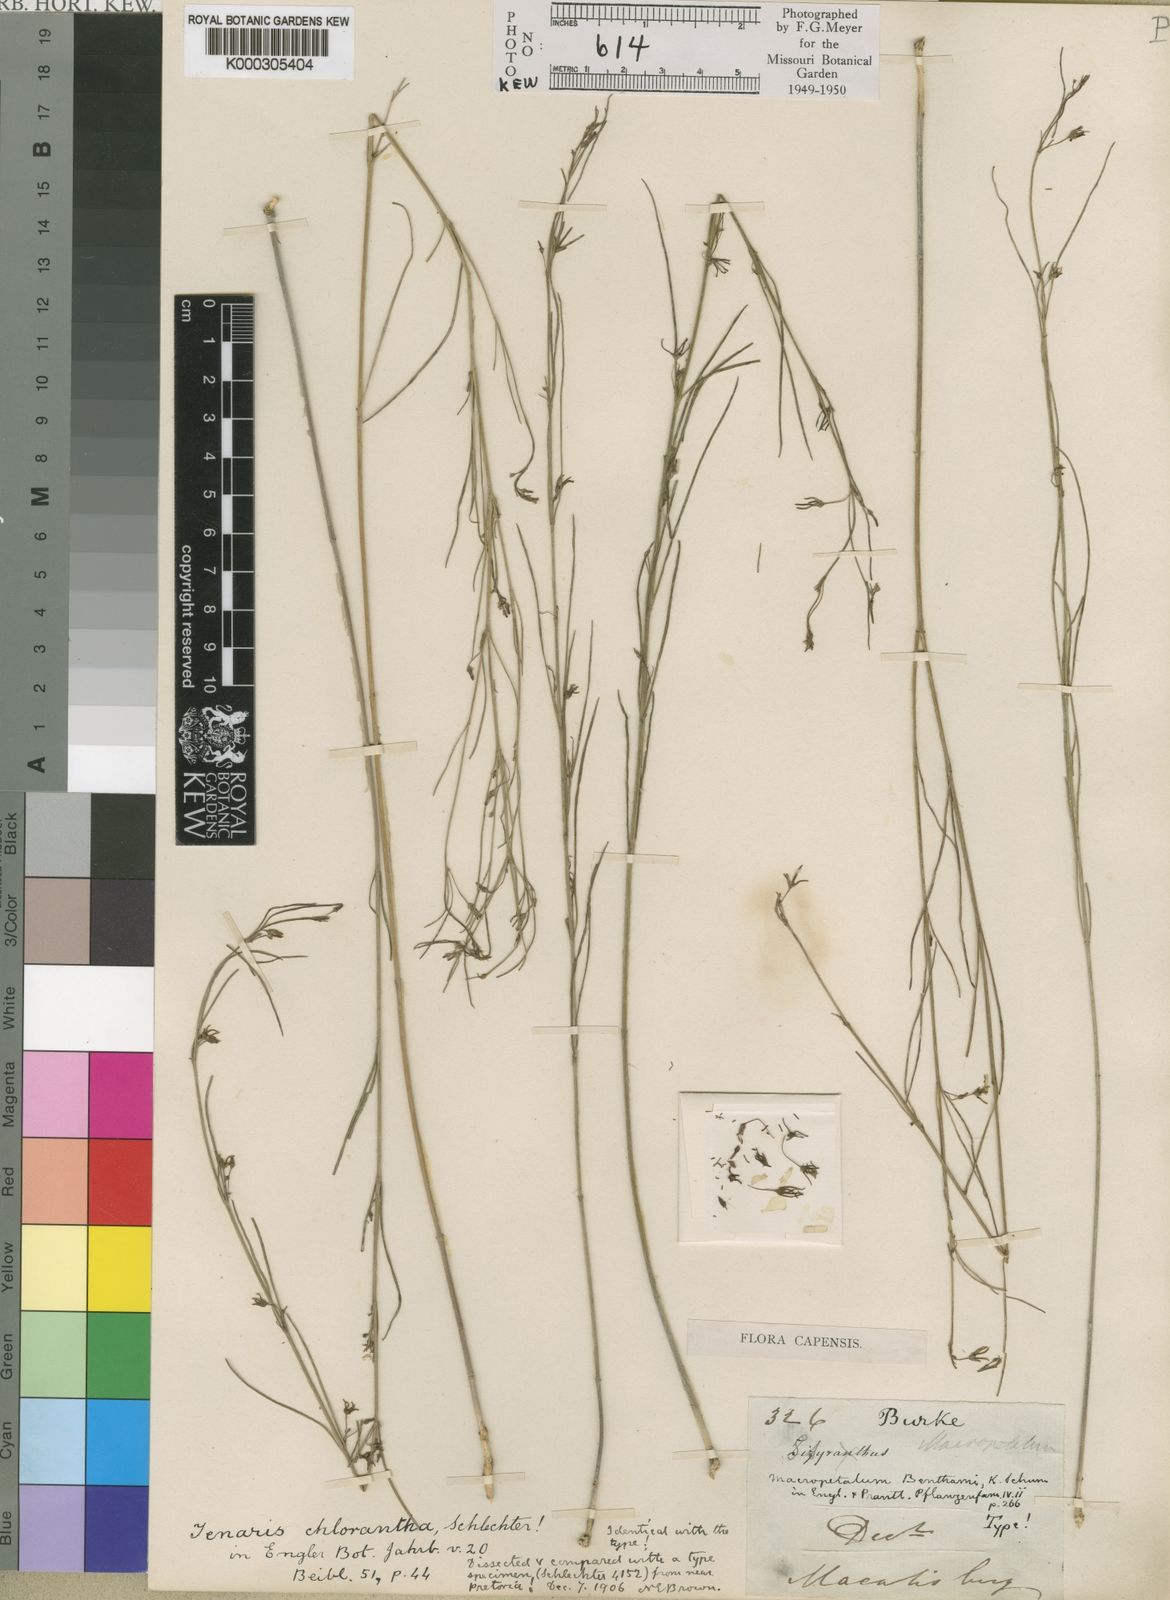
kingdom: Plantae
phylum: Tracheophyta
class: Magnoliopsida
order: Gentianales
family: Apocynaceae
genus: Ceropegia
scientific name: Ceropegia chlorantha
